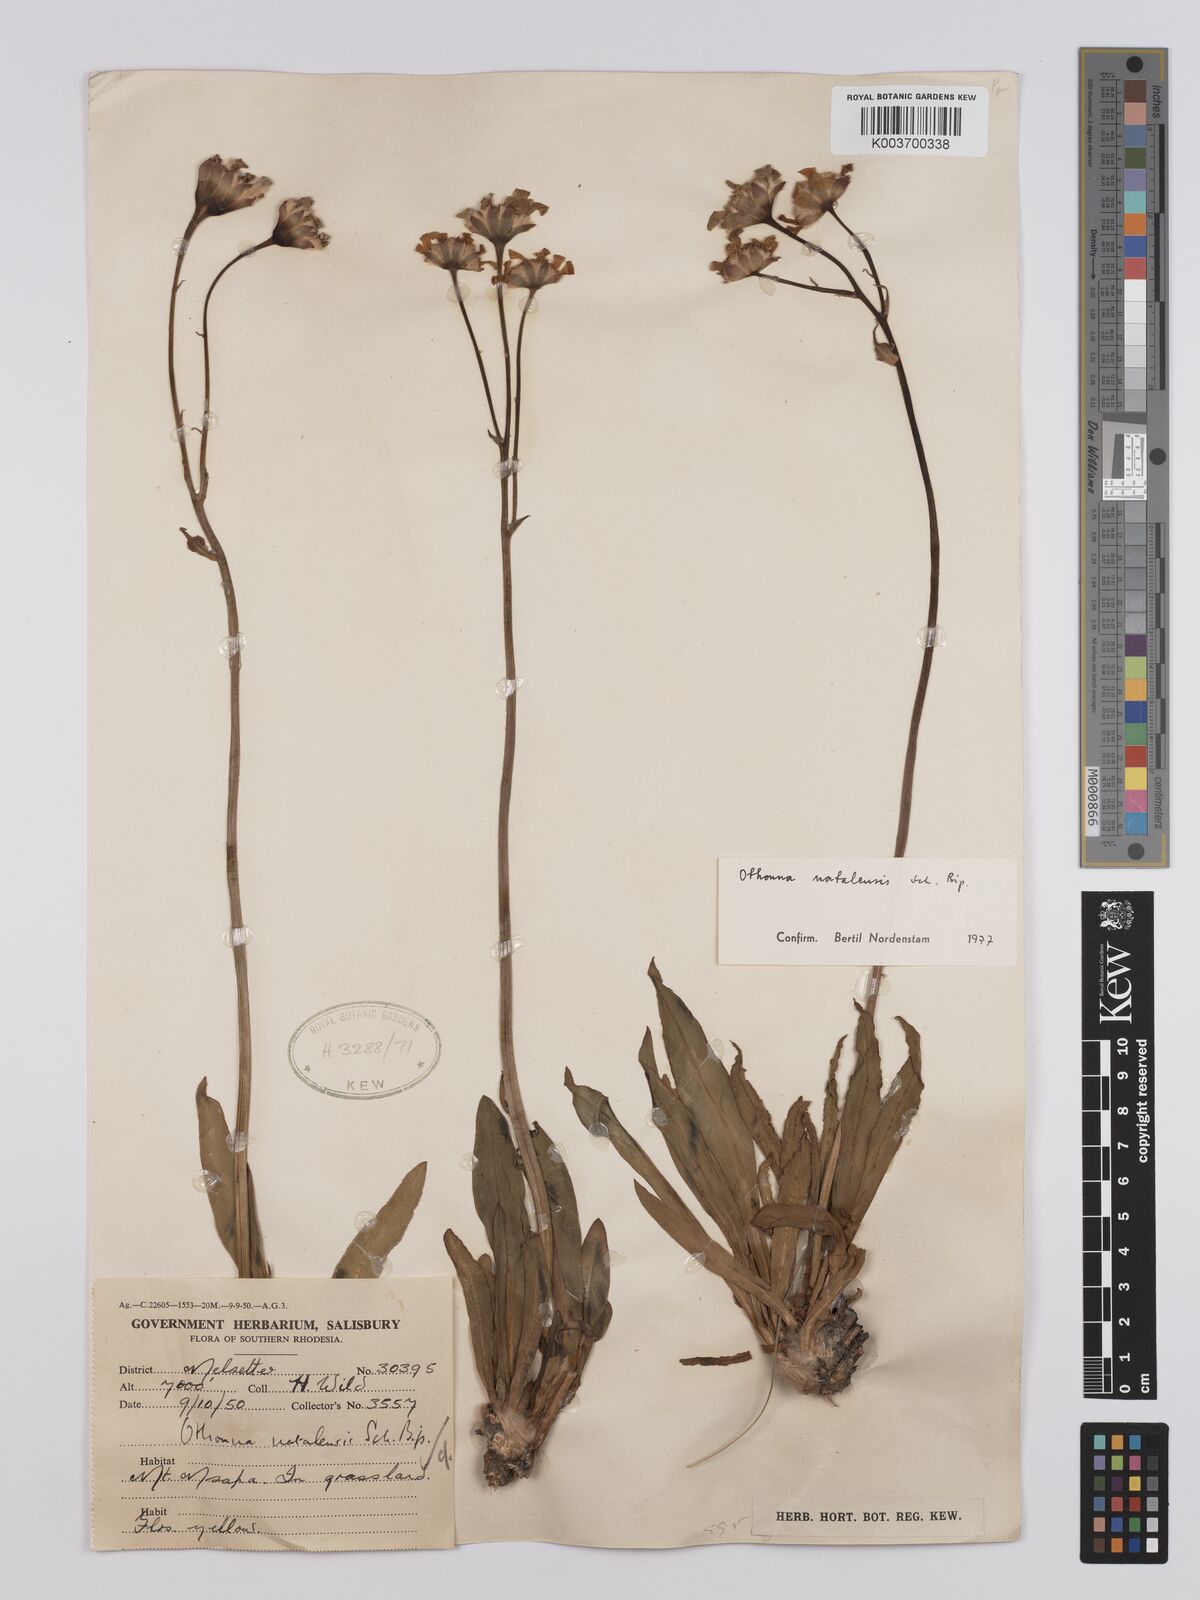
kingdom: Plantae
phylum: Tracheophyta
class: Magnoliopsida
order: Asterales
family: Asteraceae
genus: Othonna
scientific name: Othonna natalensis
